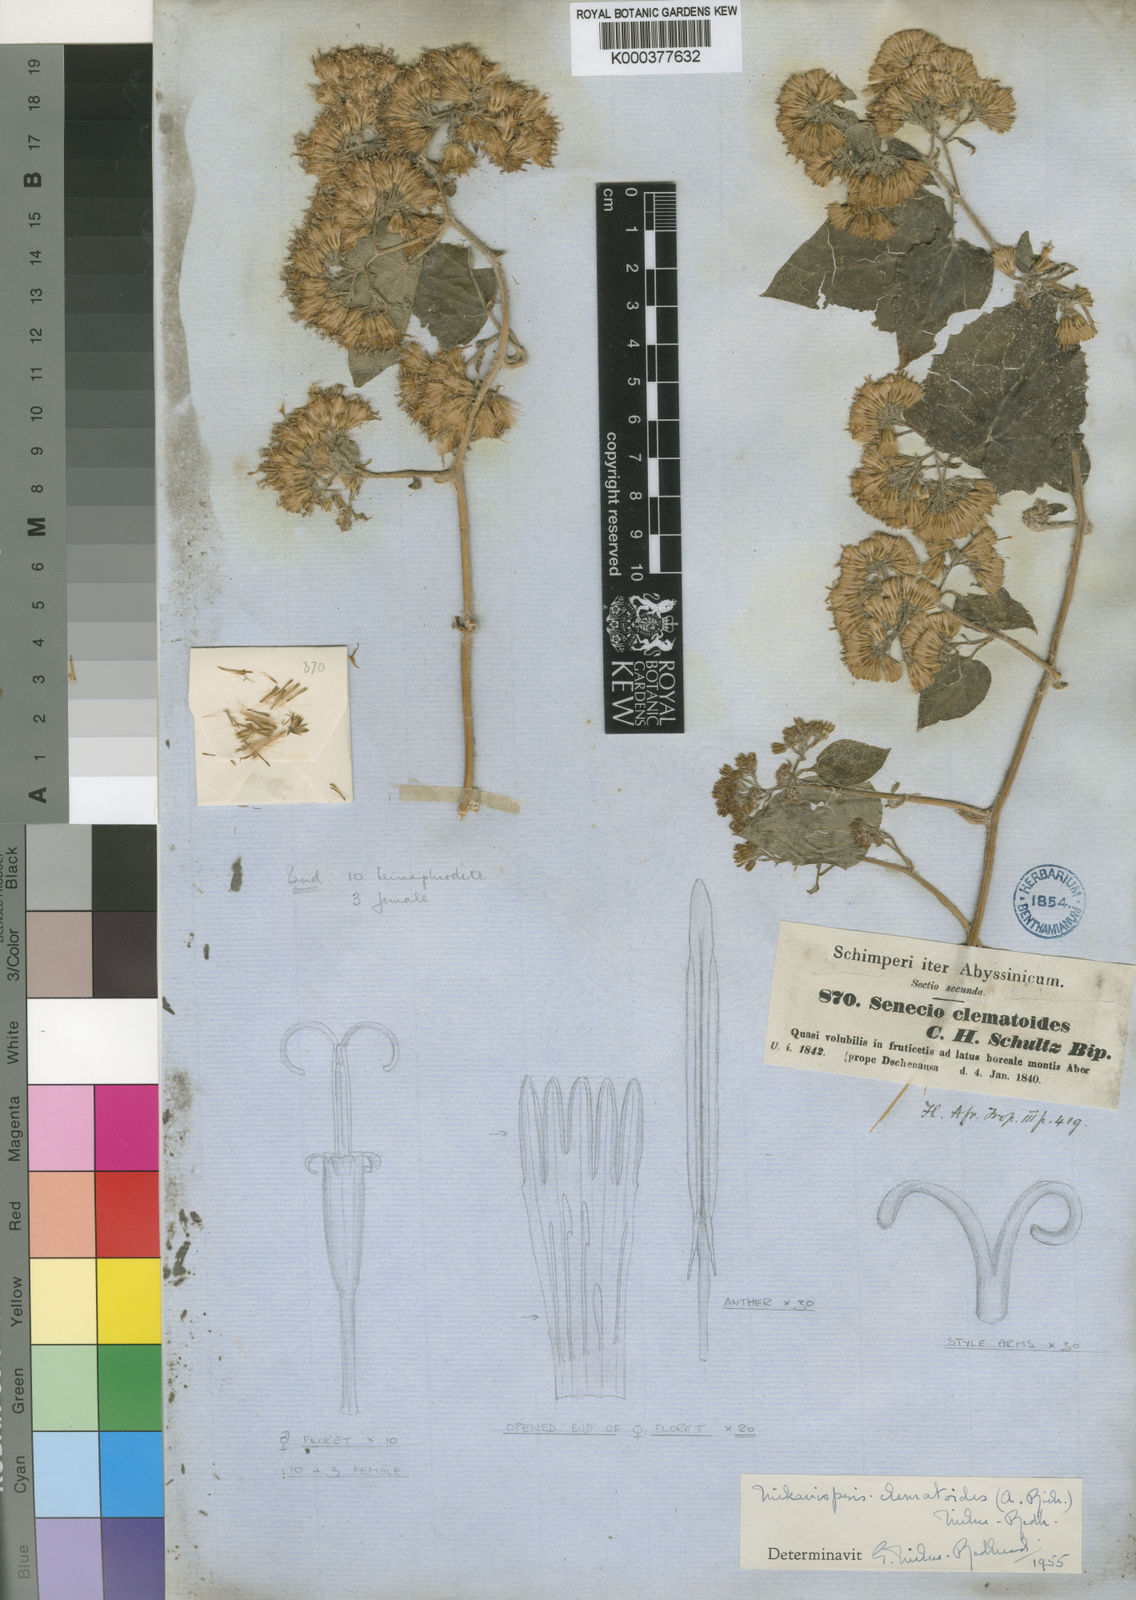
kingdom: Plantae
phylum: Tracheophyta
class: Magnoliopsida
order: Asterales
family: Asteraceae
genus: Mikaniopsis
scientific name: Mikaniopsis clematoides
